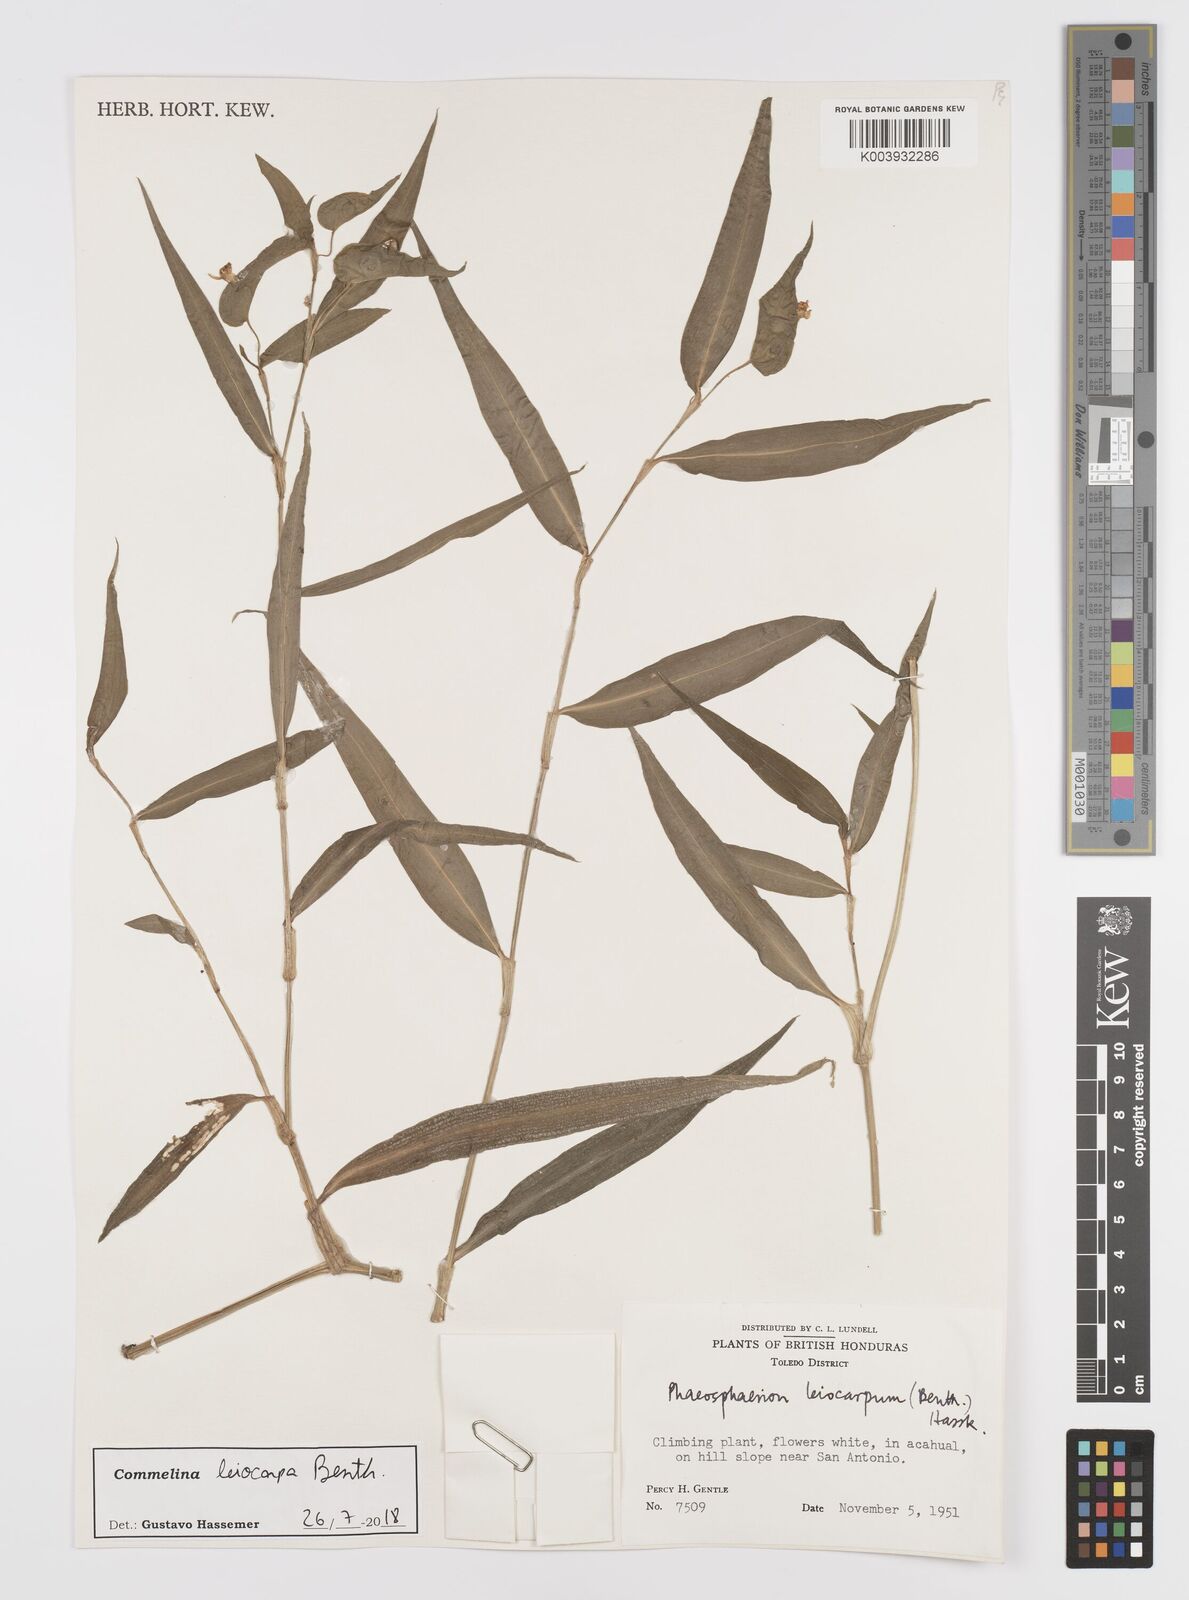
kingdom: Plantae
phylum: Tracheophyta
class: Liliopsida
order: Commelinales
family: Commelinaceae
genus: Commelina
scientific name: Commelina leiocarpa
